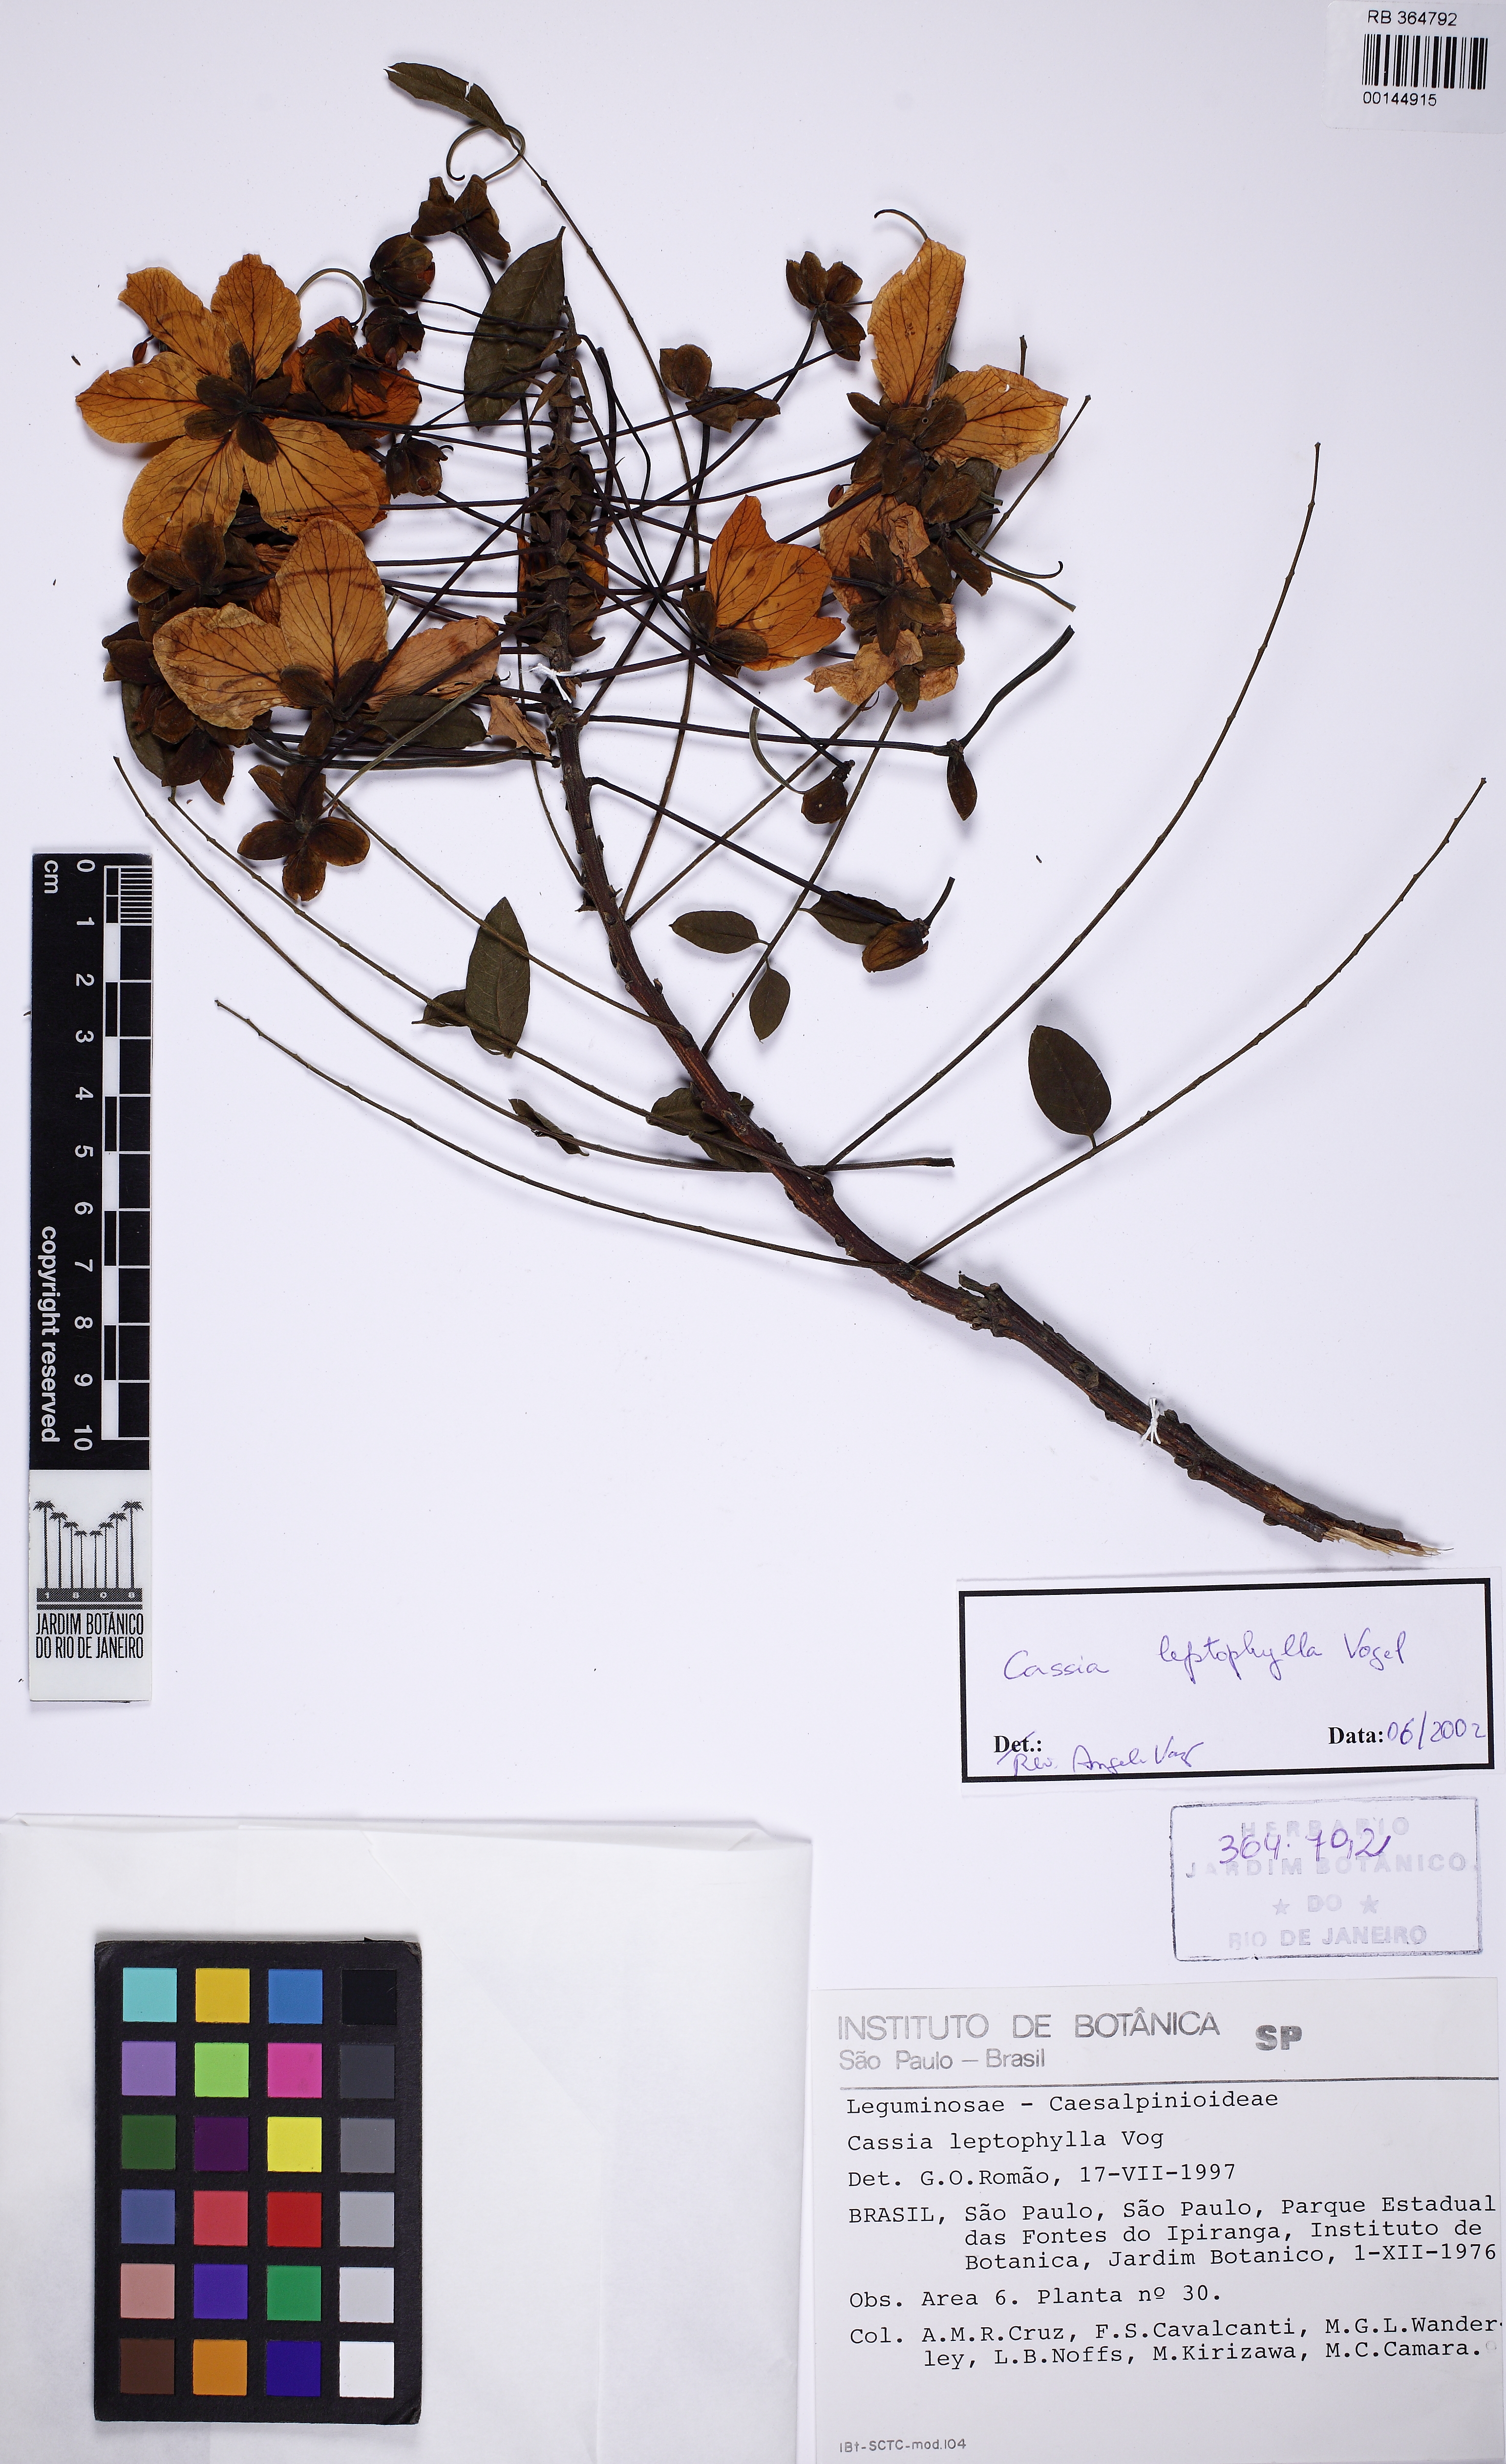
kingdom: Plantae
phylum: Tracheophyta
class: Magnoliopsida
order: Fabales
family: Fabaceae
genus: Cassia
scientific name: Cassia leptophylla
